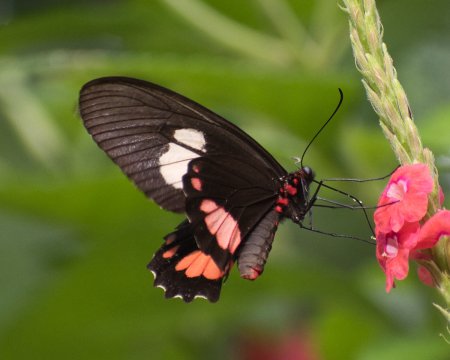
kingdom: Animalia
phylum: Arthropoda
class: Insecta
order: Lepidoptera
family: Papilionidae
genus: Parides
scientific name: Parides erithalion
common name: Variable Cattleheart
